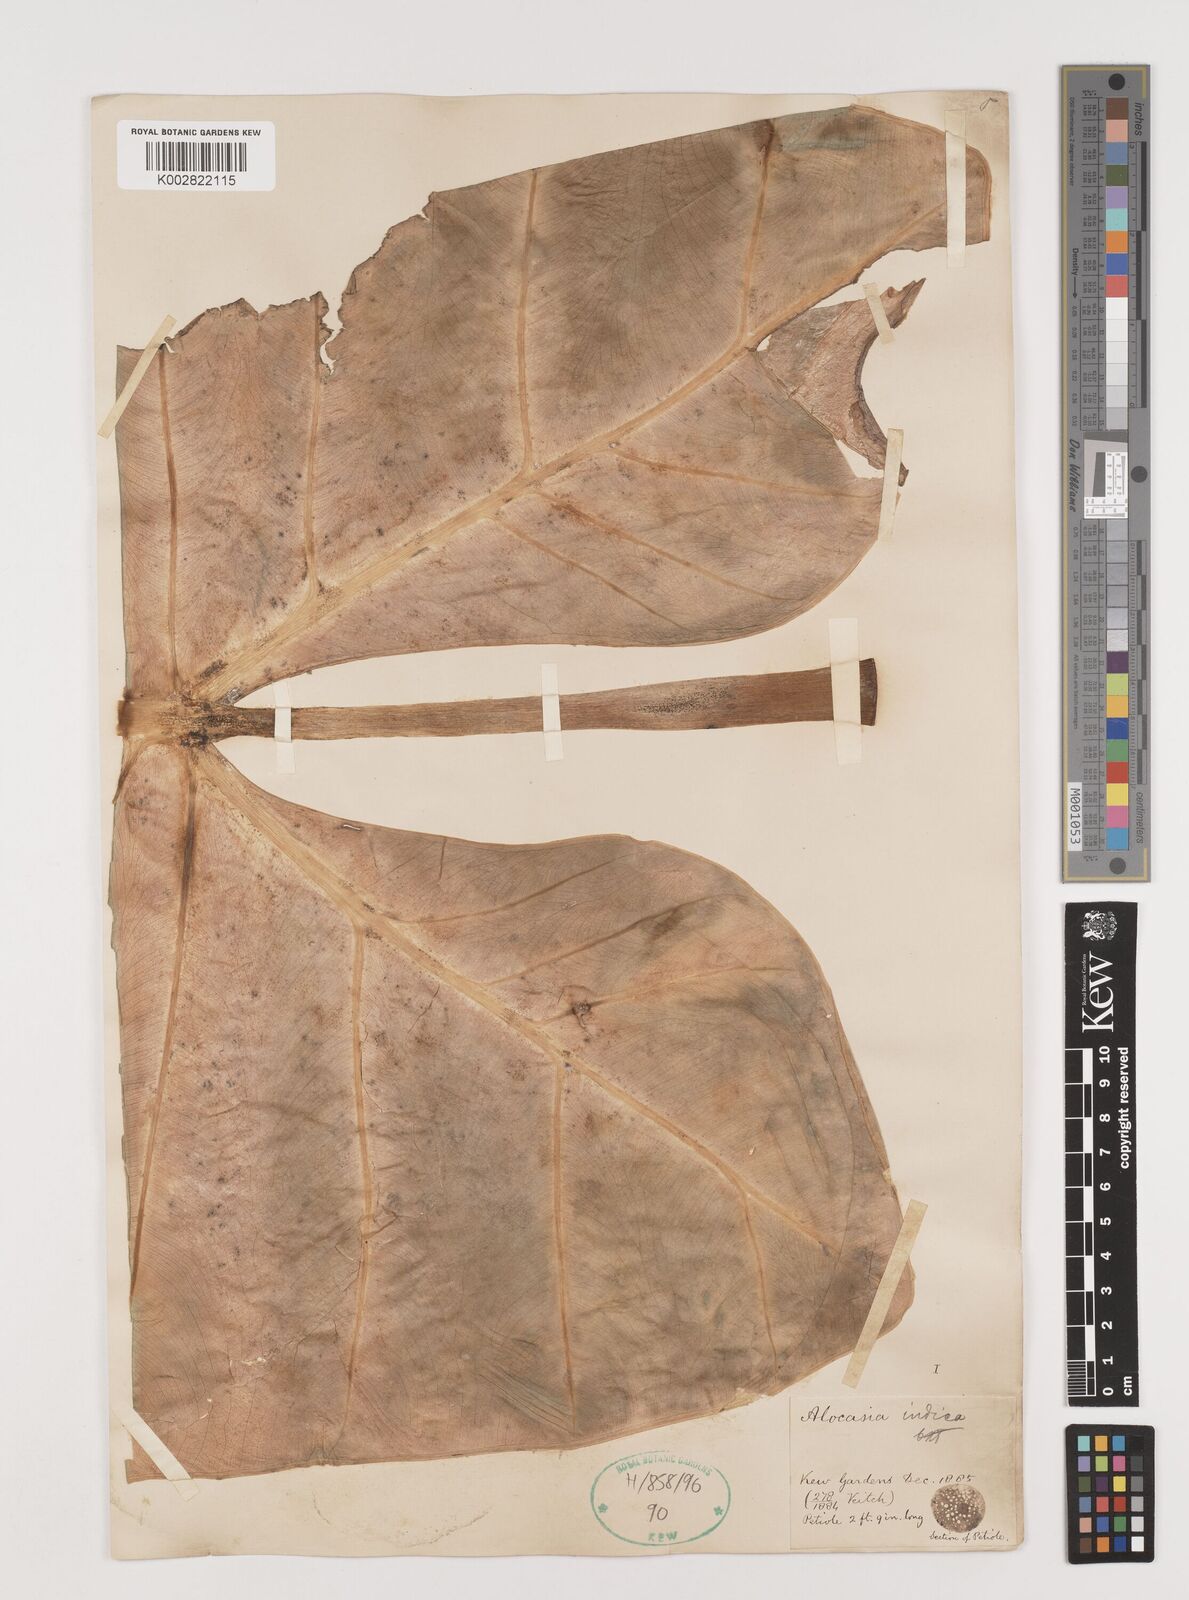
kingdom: Plantae
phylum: Tracheophyta
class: Liliopsida
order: Alismatales
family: Araceae
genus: Alocasia
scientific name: Alocasia macrorrhizos
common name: Giant taro
